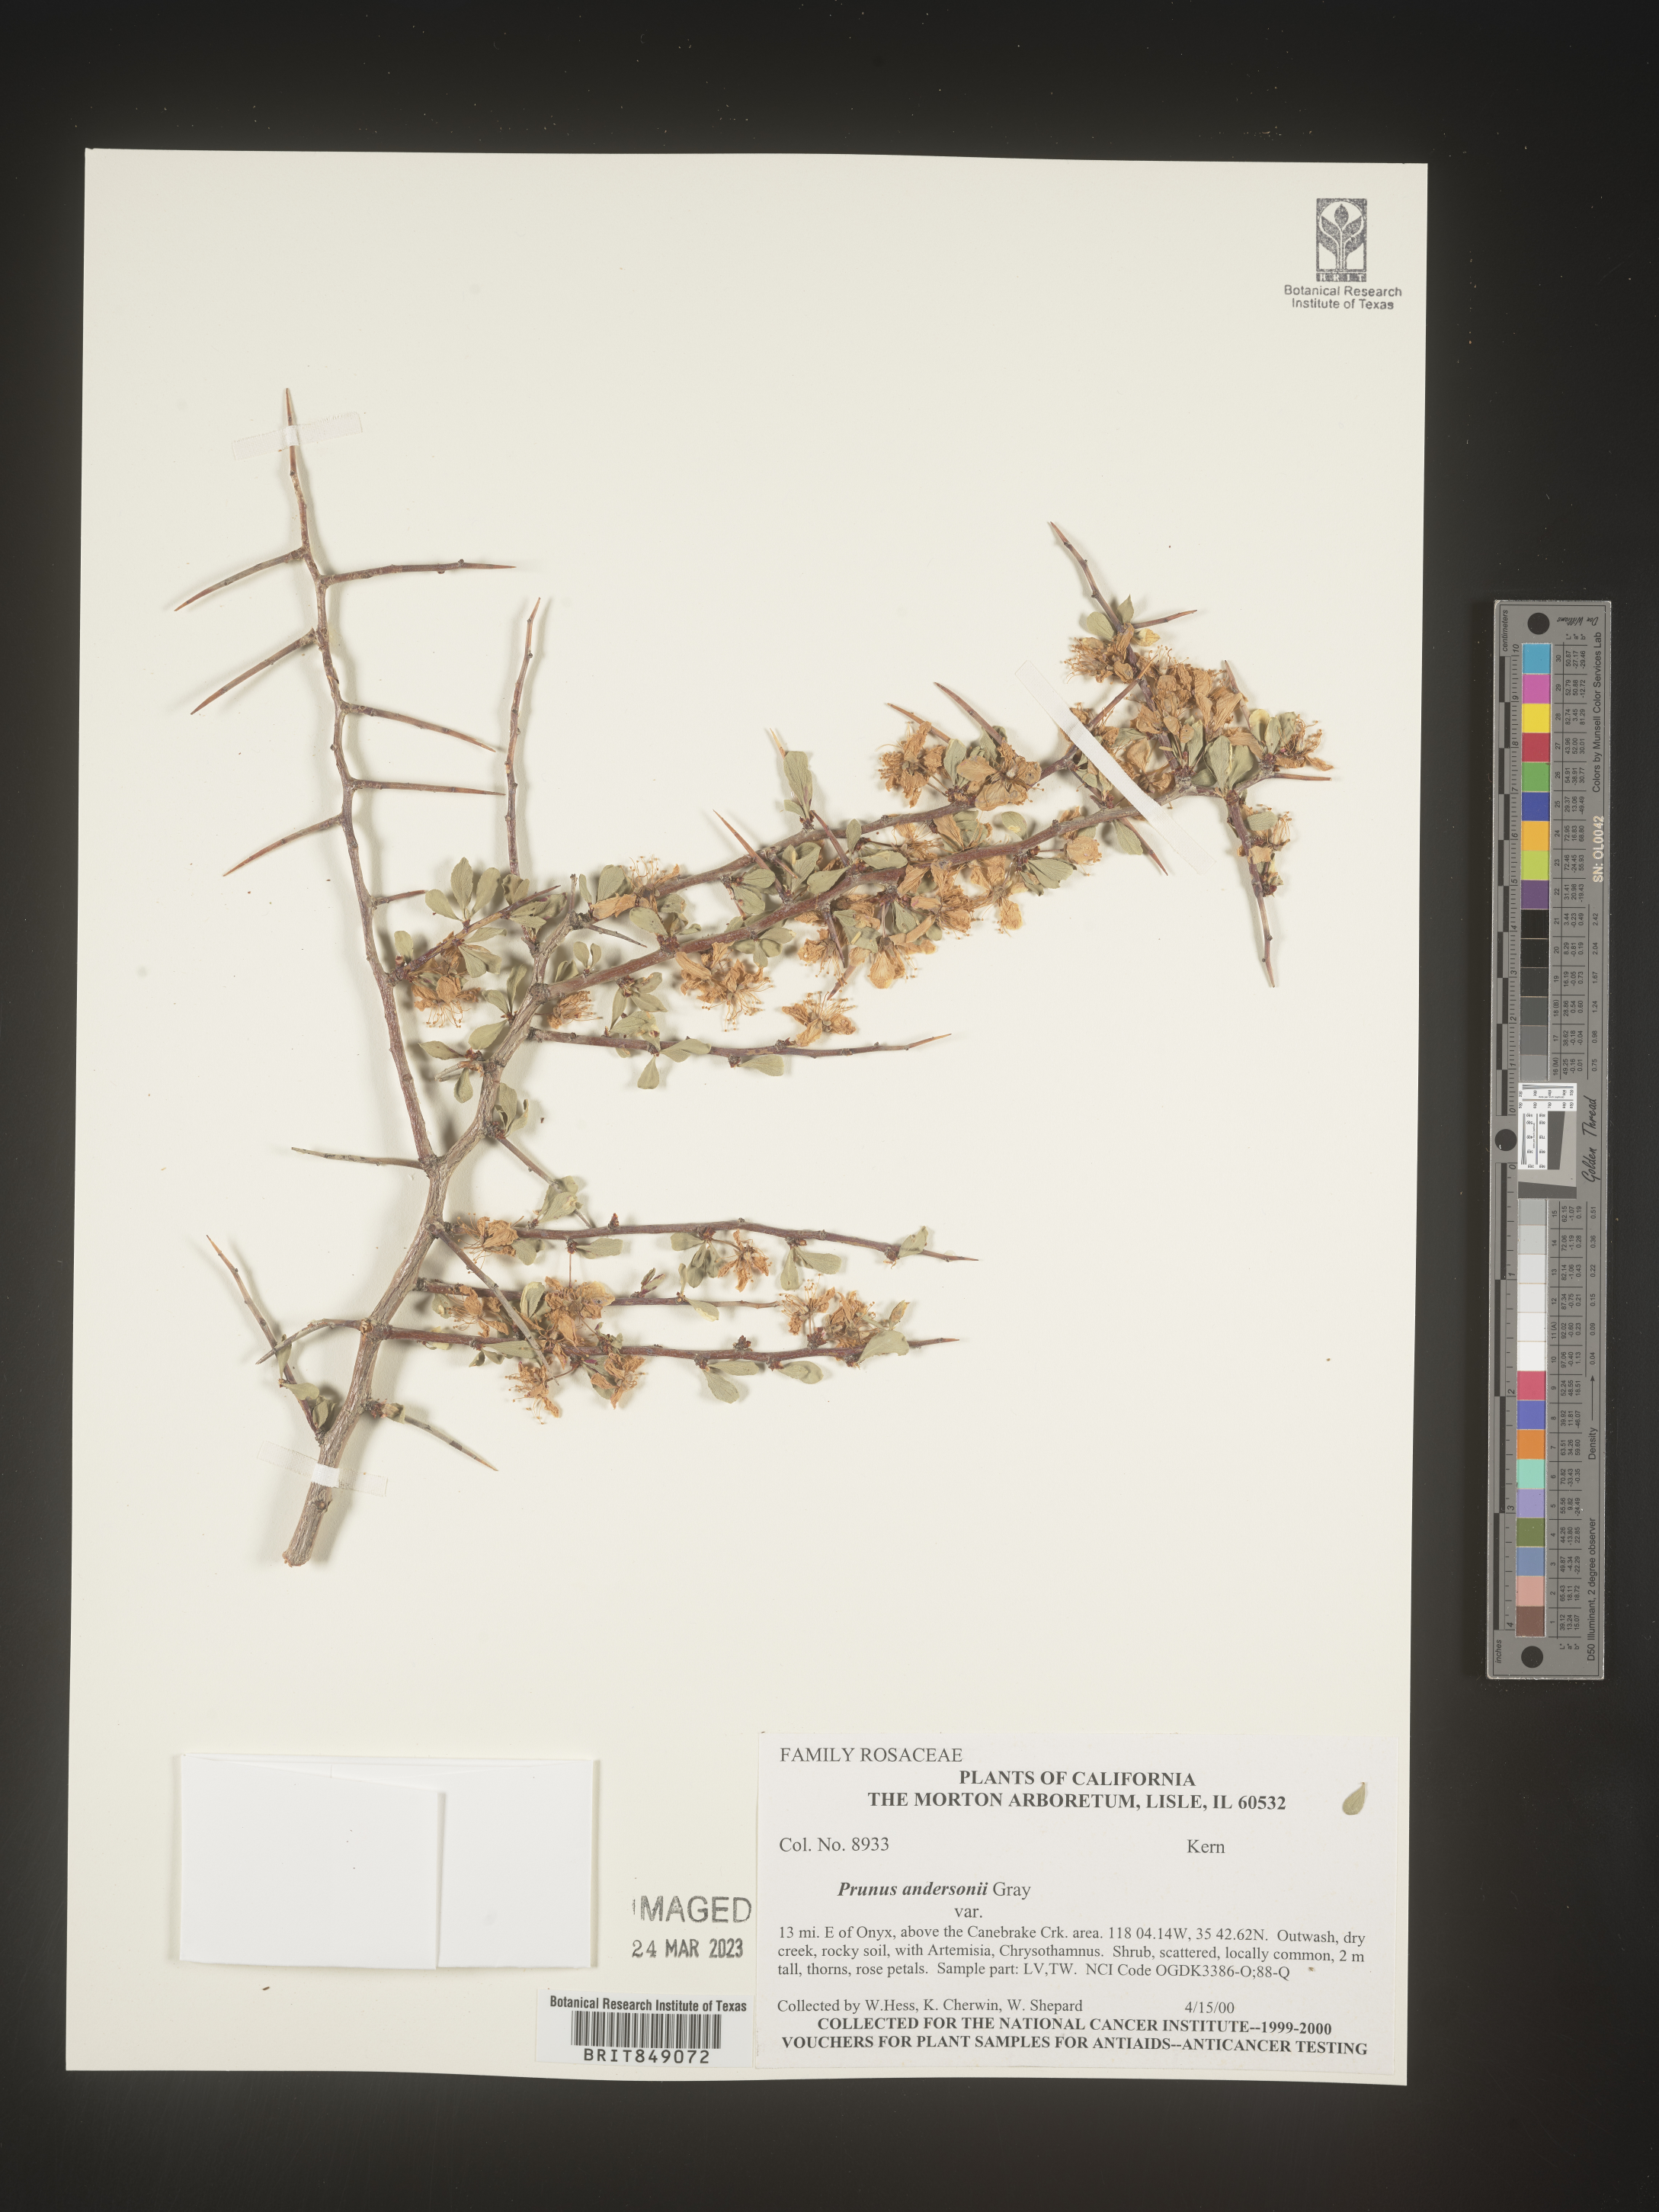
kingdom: Plantae
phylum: Tracheophyta
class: Magnoliopsida
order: Rosales
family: Rosaceae
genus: Prunus
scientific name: Prunus andersonii
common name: Desert peach
